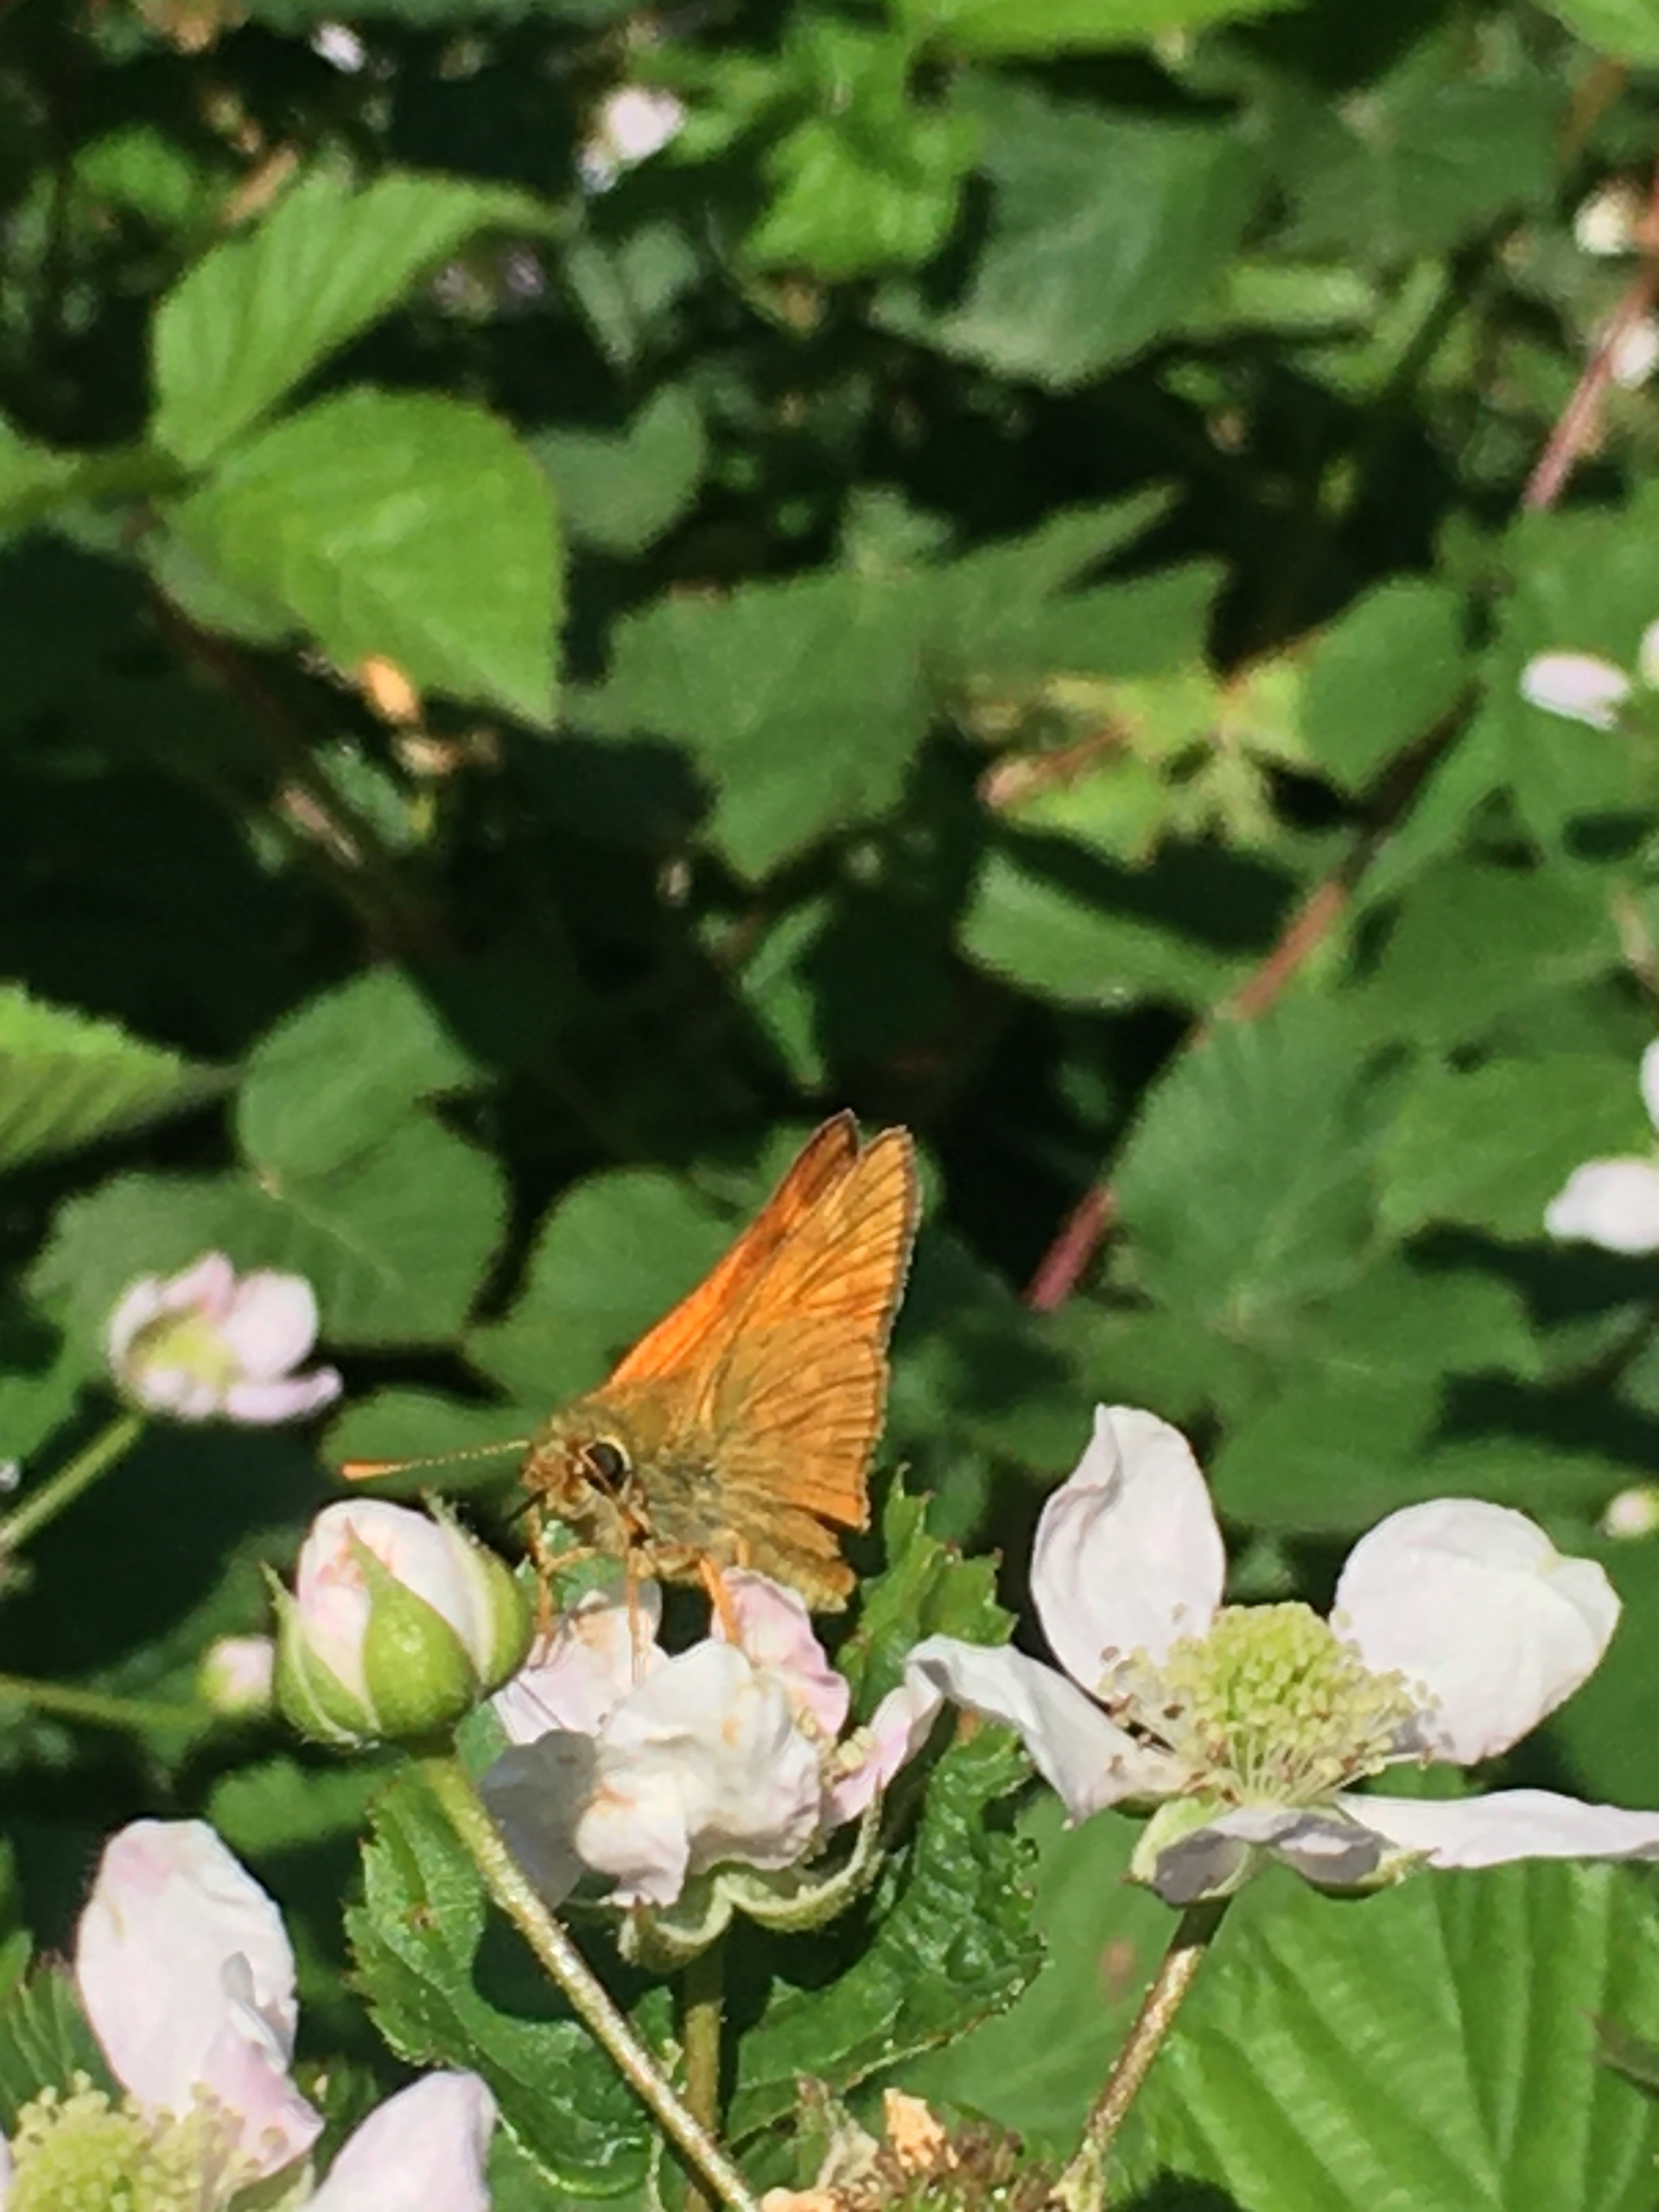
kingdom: Animalia
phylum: Arthropoda
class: Insecta
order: Lepidoptera
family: Hesperiidae
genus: Ochlodes
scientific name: Ochlodes venata
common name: Stor bredpande
